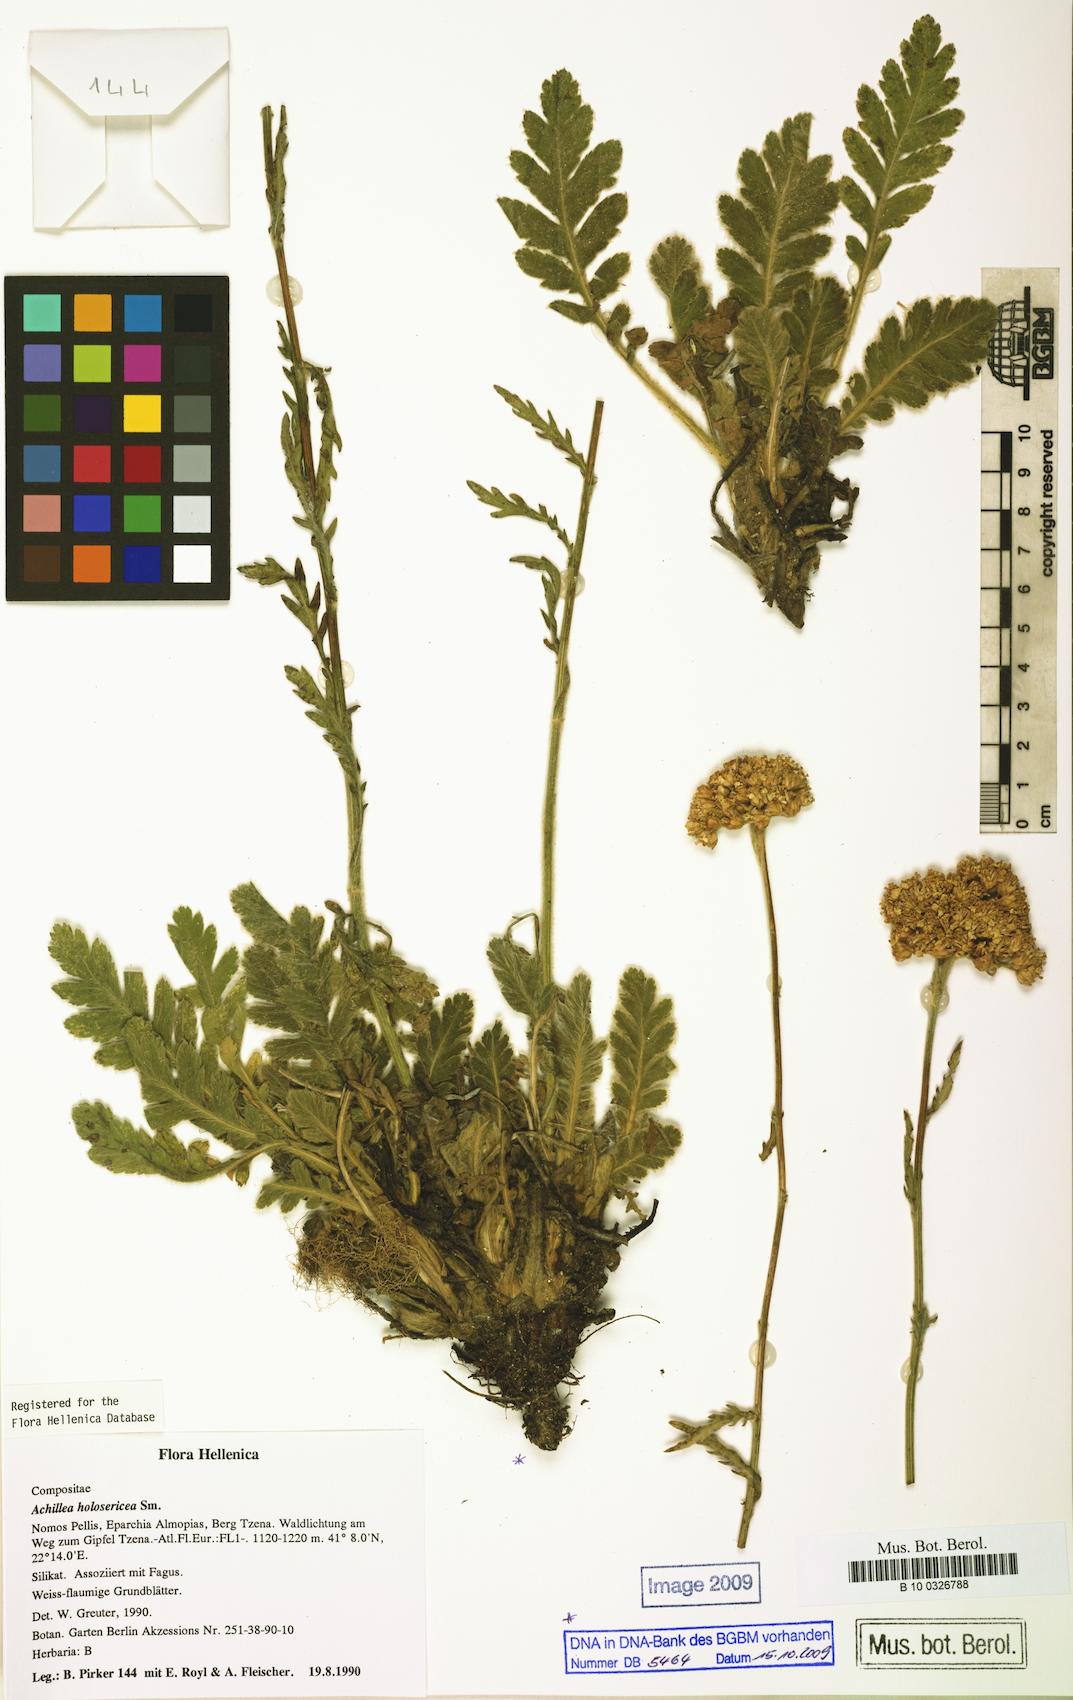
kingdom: Plantae
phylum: Tracheophyta
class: Magnoliopsida
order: Asterales
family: Asteraceae
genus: Achillea
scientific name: Achillea holosericea
